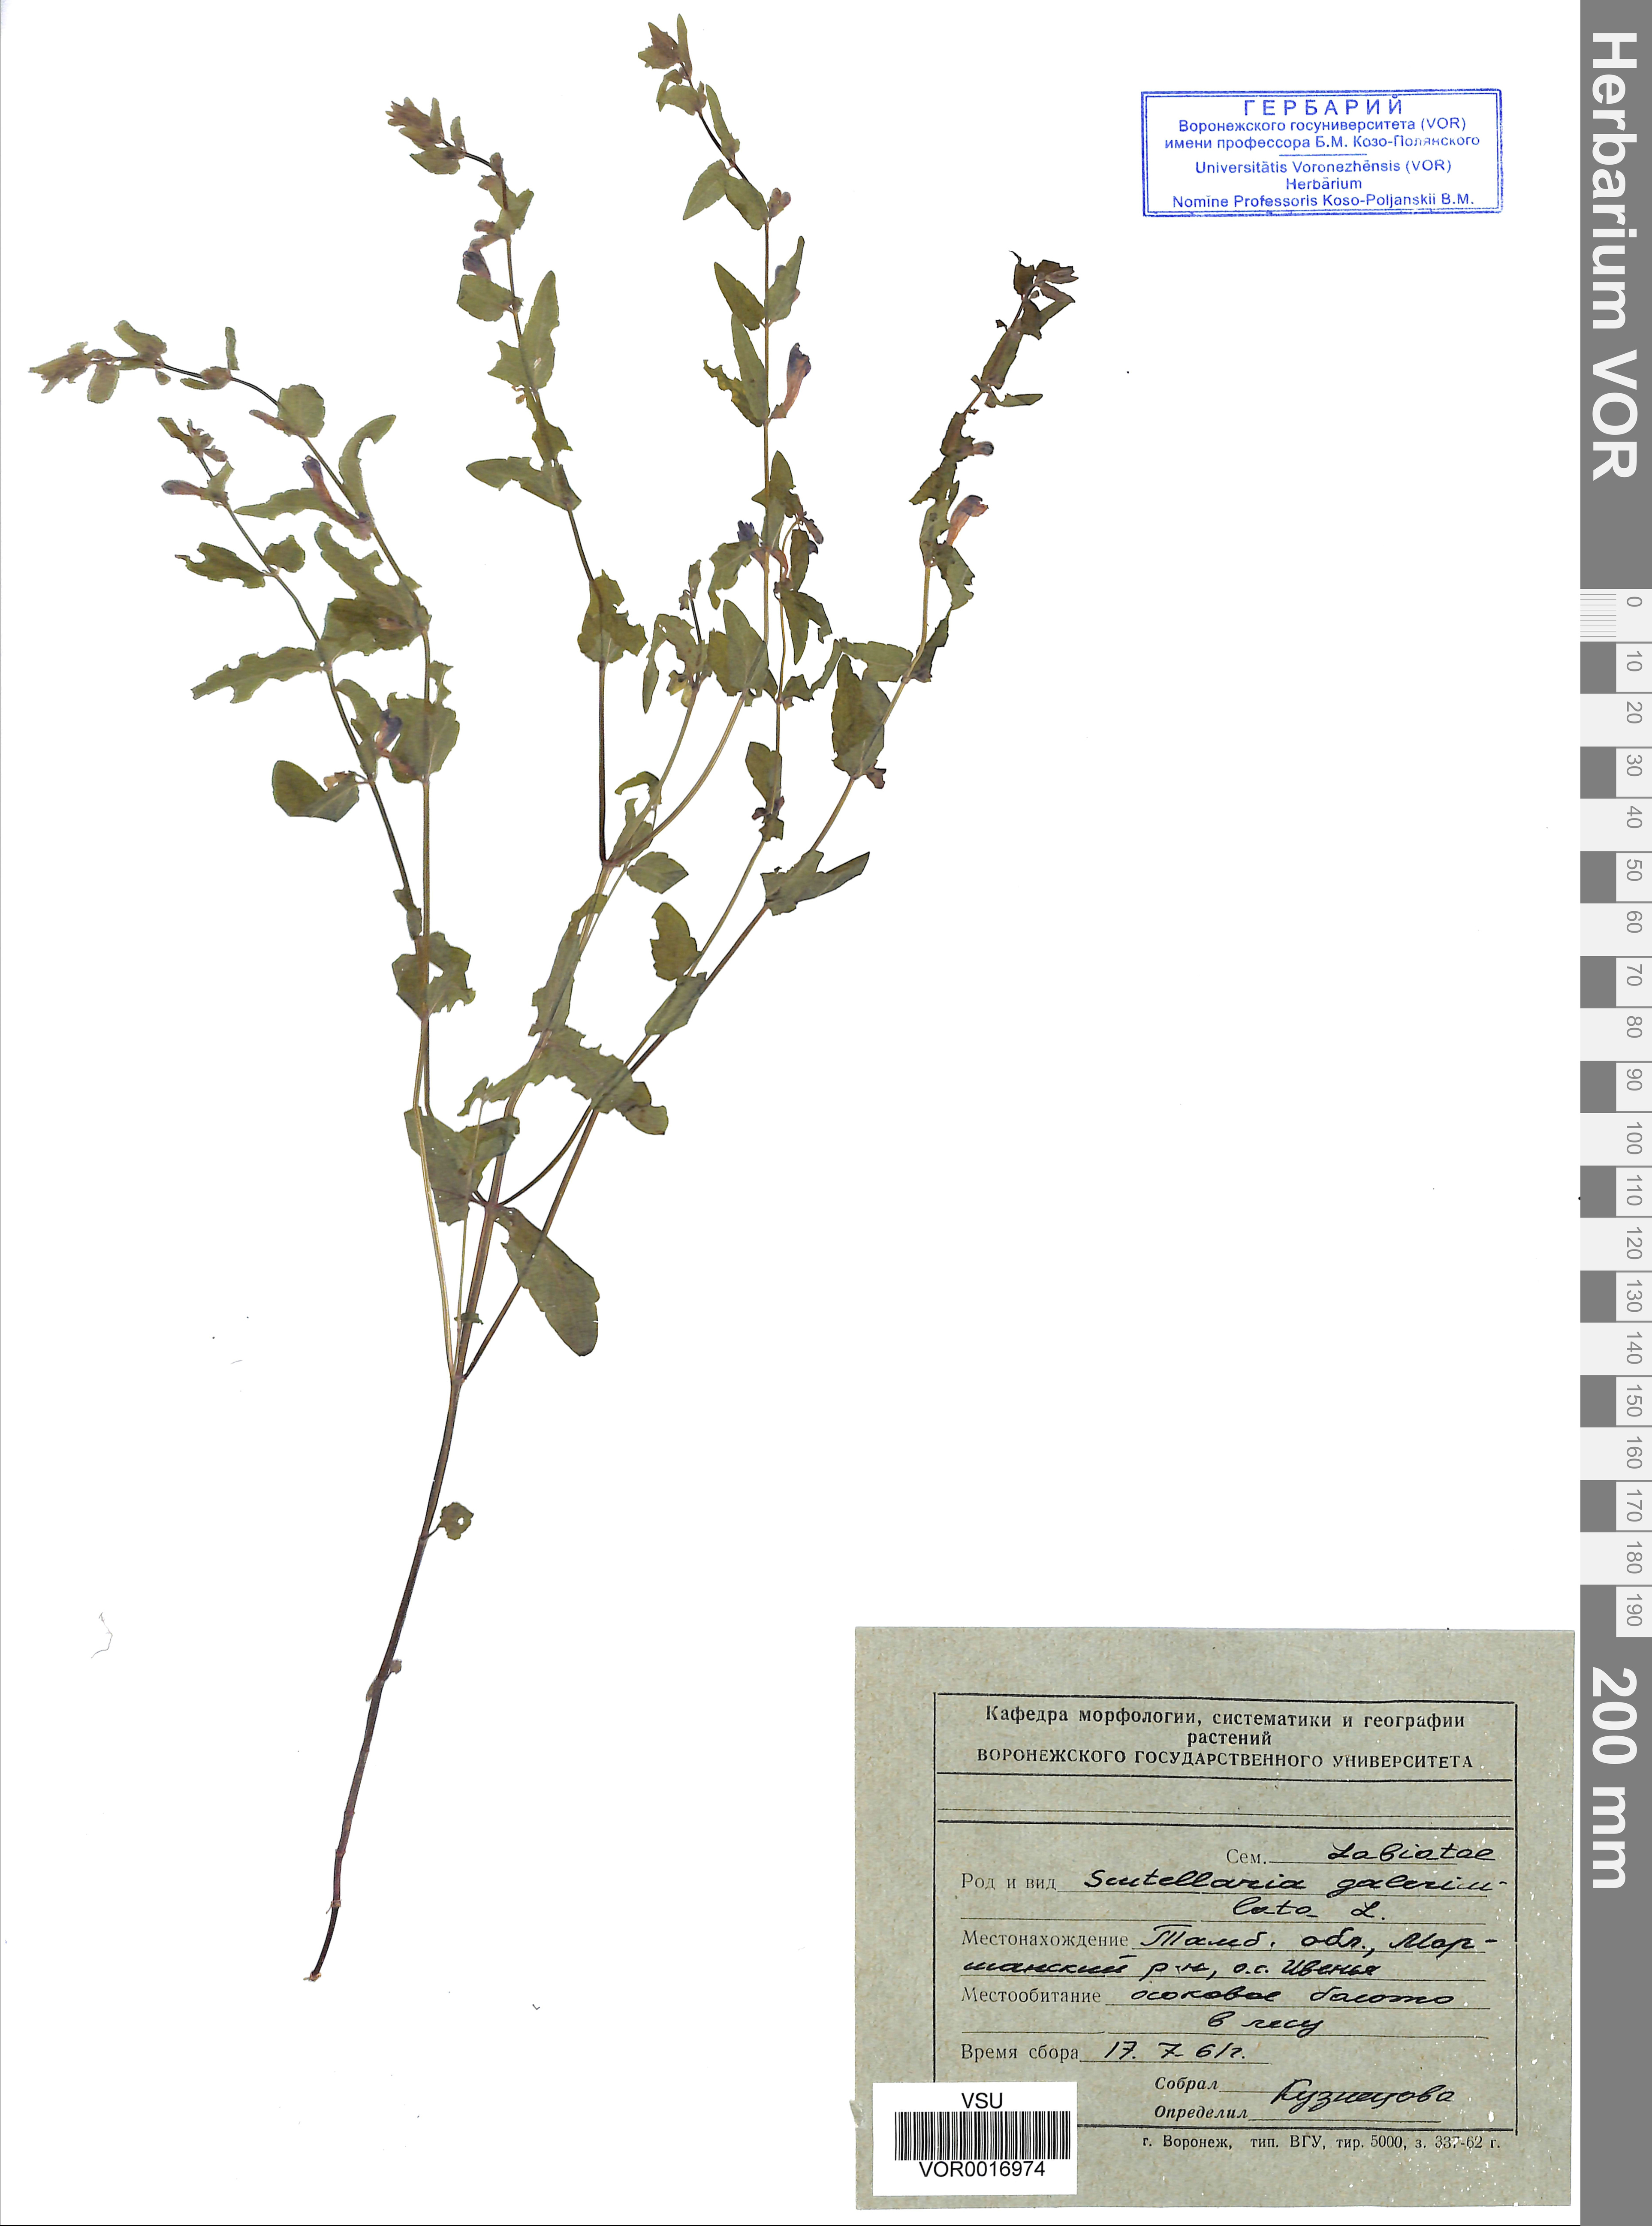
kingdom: Plantae
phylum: Tracheophyta
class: Magnoliopsida
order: Lamiales
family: Lamiaceae
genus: Scutellaria
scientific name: Scutellaria galericulata
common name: Skullcap
